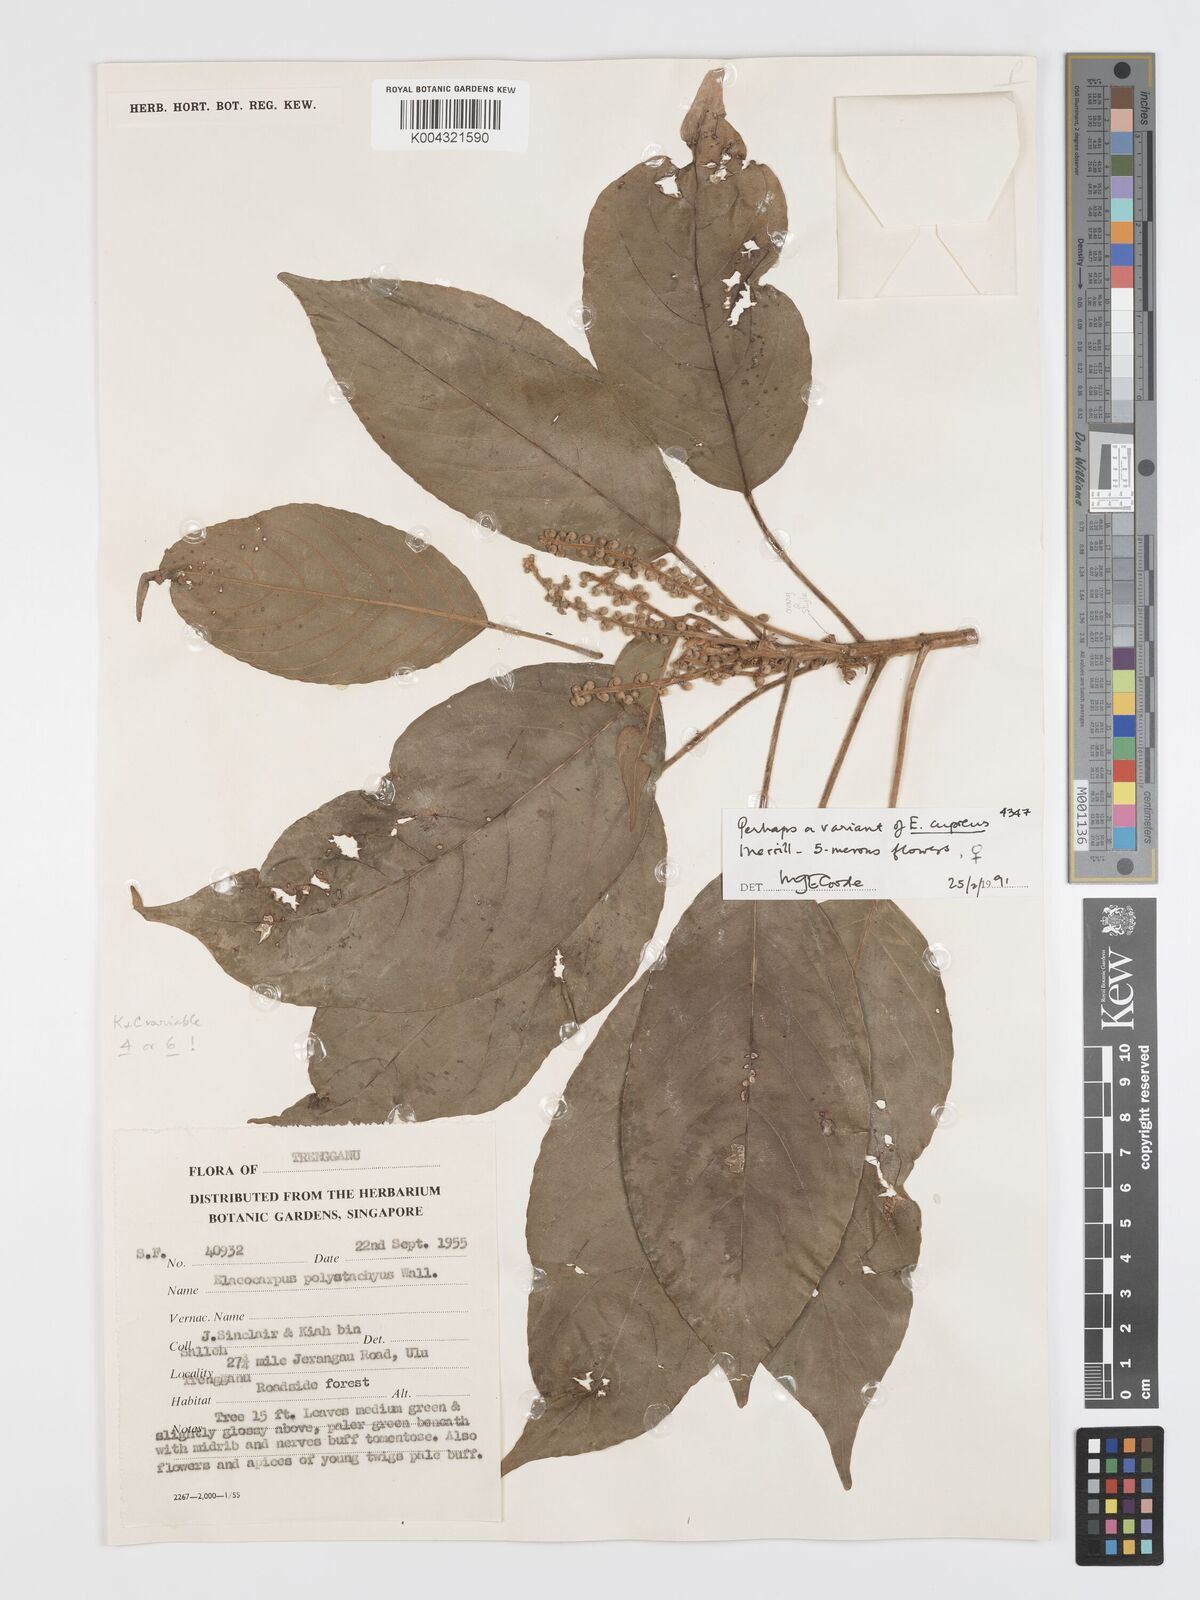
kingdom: Plantae
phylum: Tracheophyta
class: Magnoliopsida
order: Oxalidales
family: Elaeocarpaceae
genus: Elaeocarpus
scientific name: Elaeocarpus cupreus
